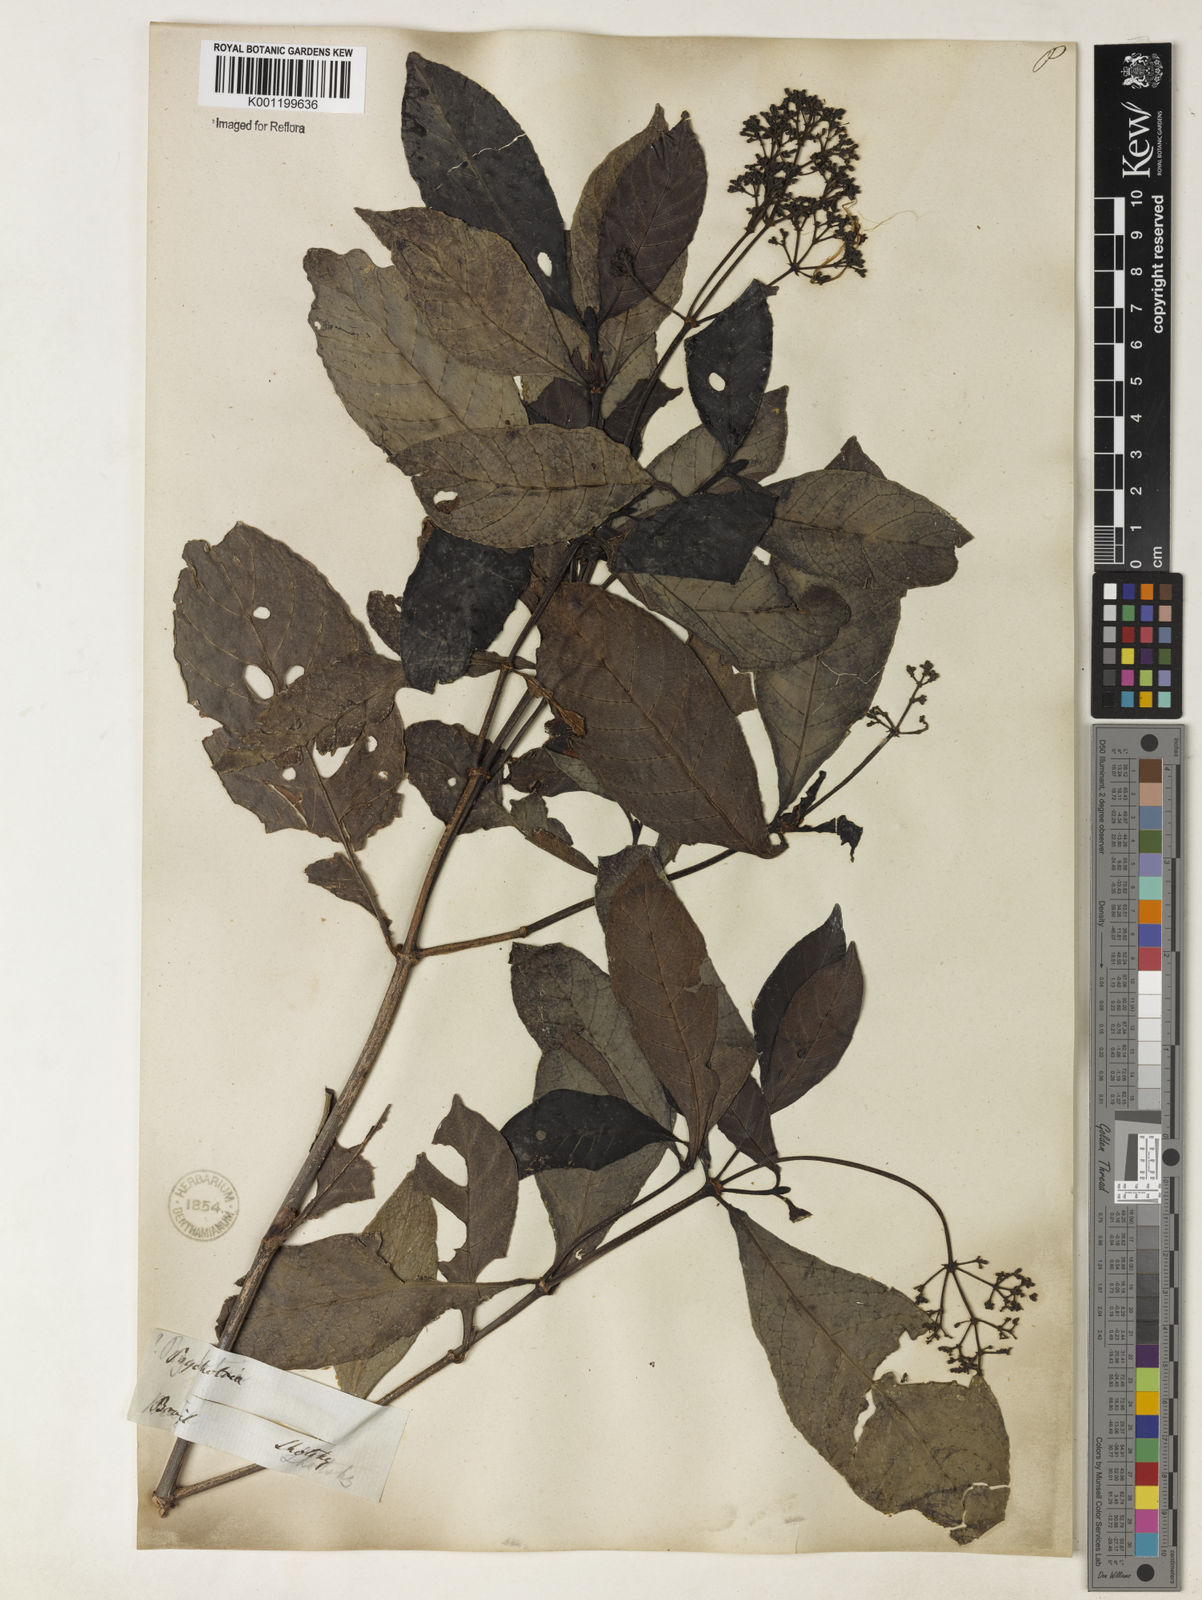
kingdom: Plantae
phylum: Tracheophyta
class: Magnoliopsida
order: Gentianales
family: Rubiaceae
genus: Psychotria
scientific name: Psychotria carthagenensis
